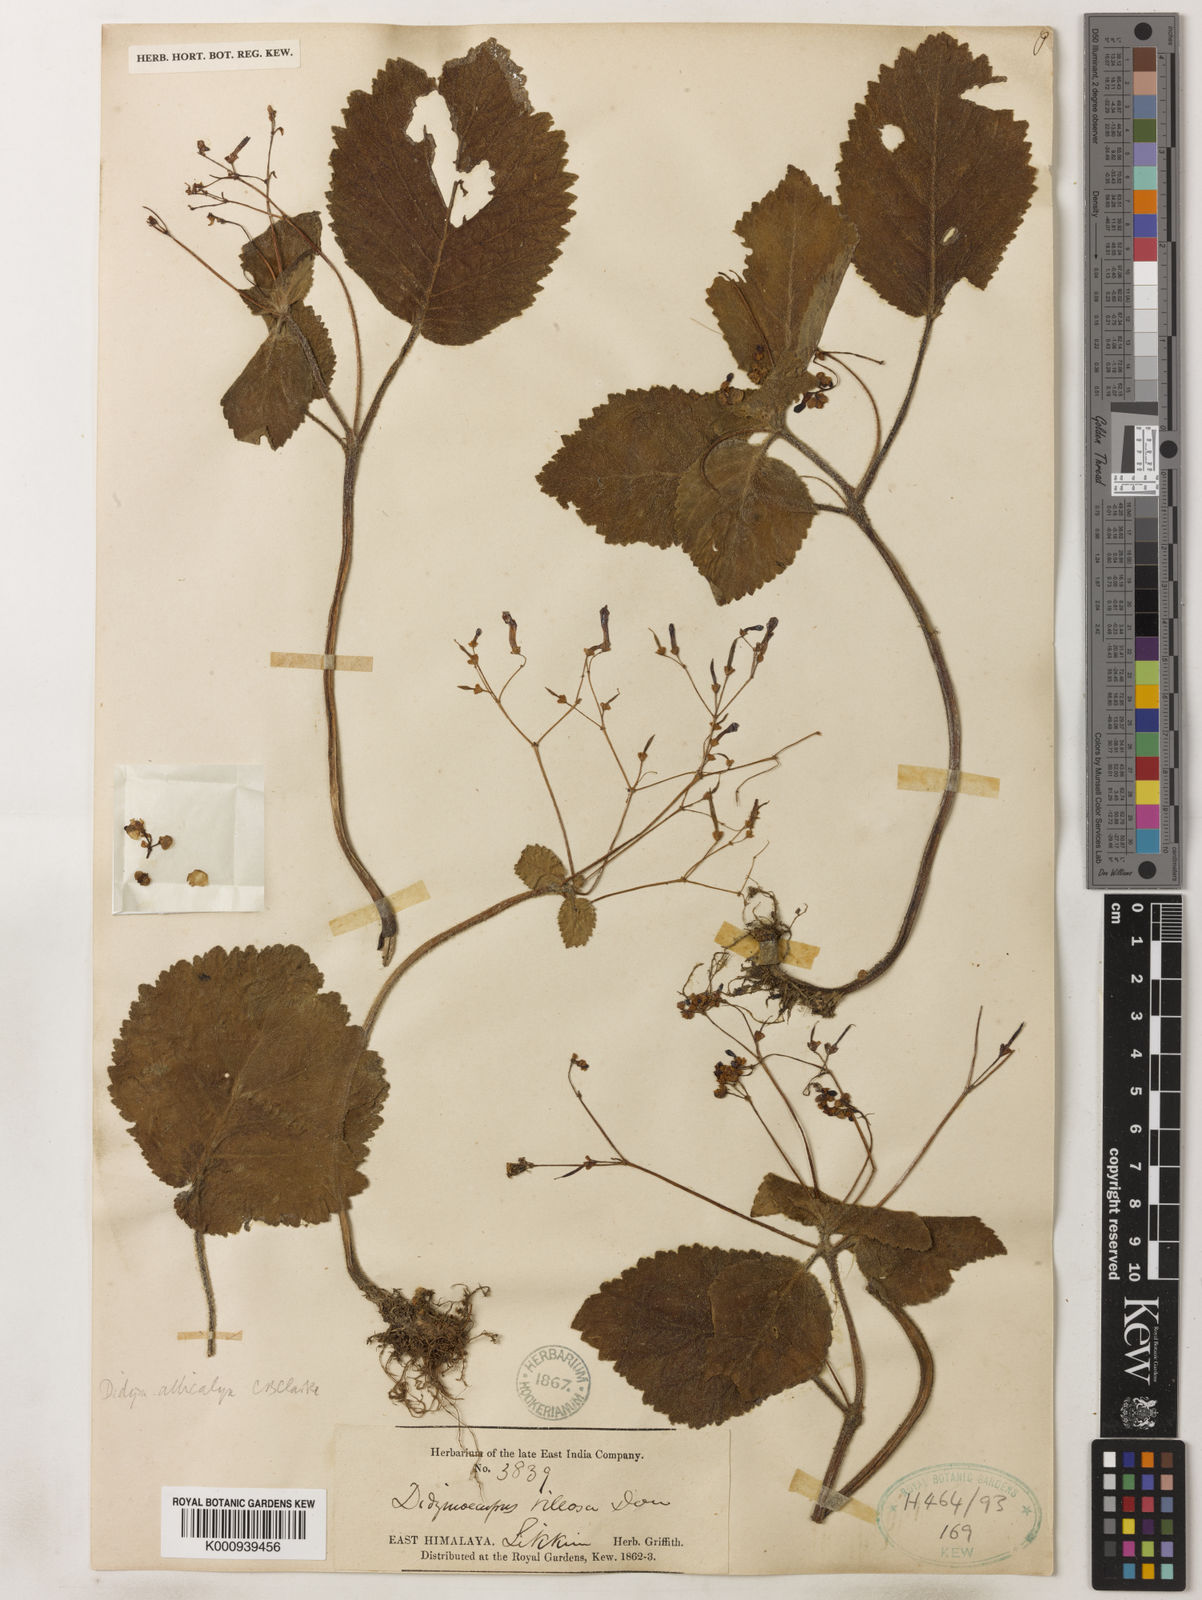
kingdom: Plantae
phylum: Tracheophyta
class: Magnoliopsida
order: Lamiales
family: Gesneriaceae
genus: Henckelia
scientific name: Henckelia
